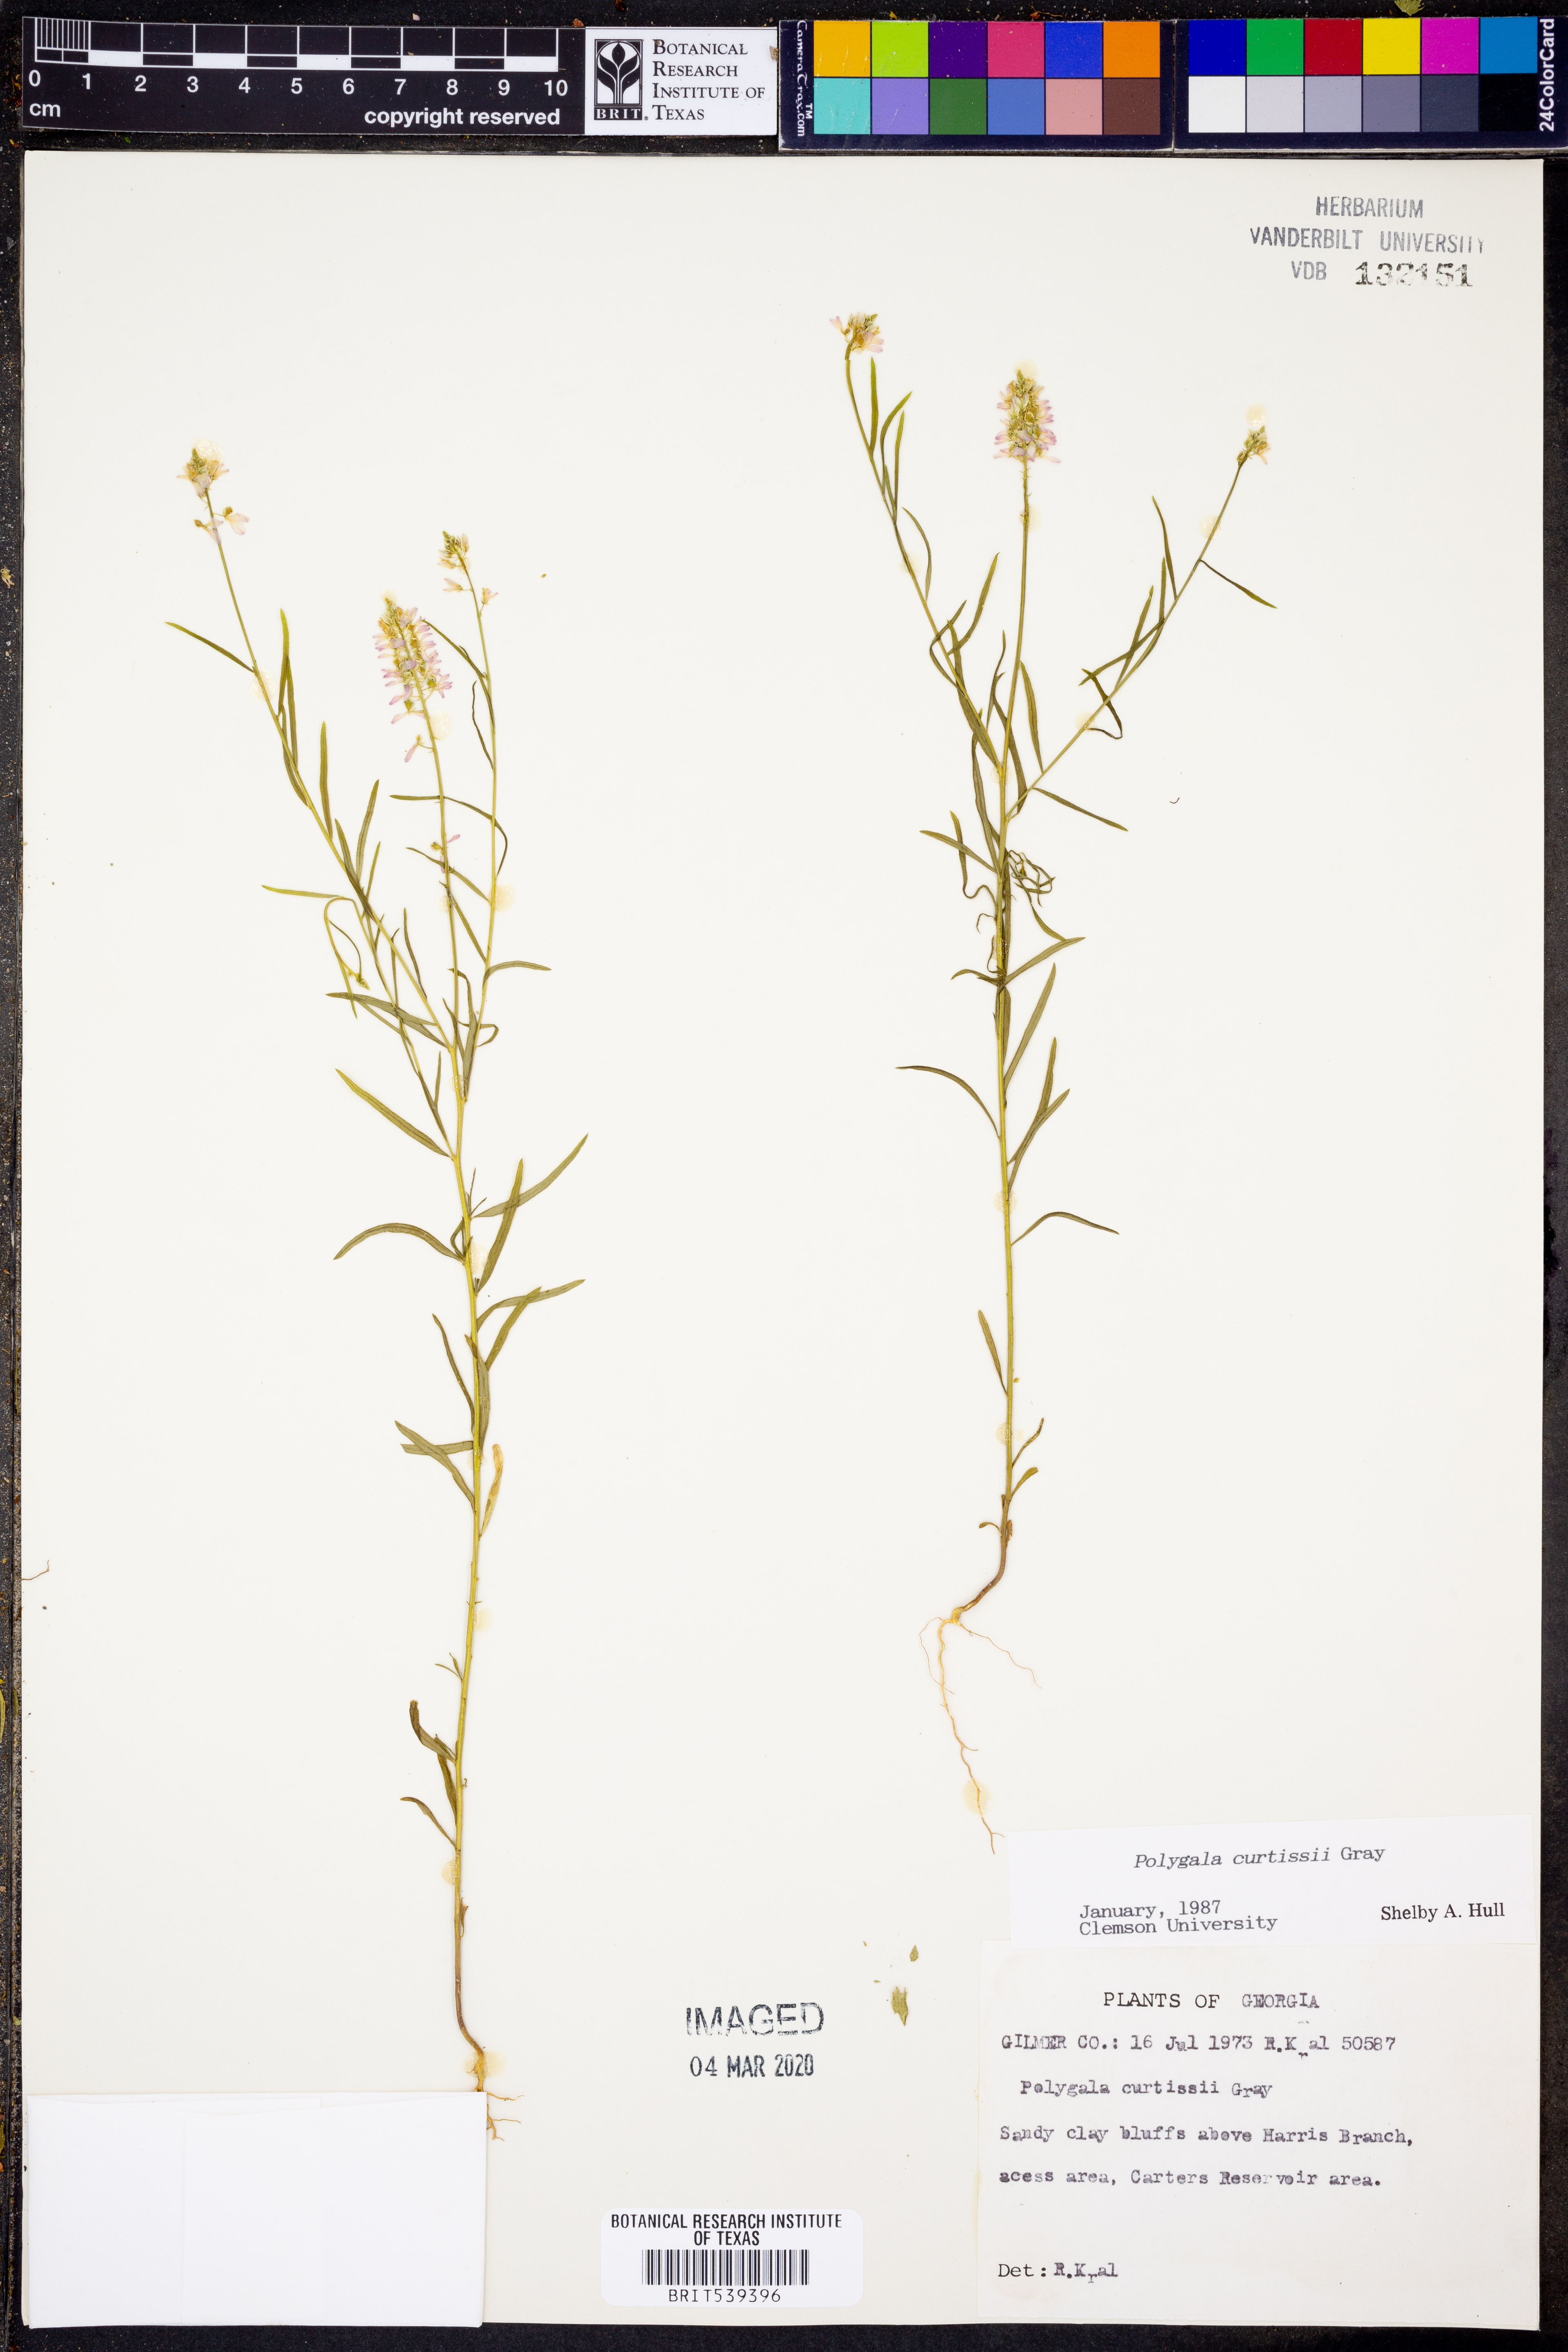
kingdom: Plantae
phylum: Tracheophyta
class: Magnoliopsida
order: Fabales
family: Polygalaceae
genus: Polygala
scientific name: Polygala curtissii
